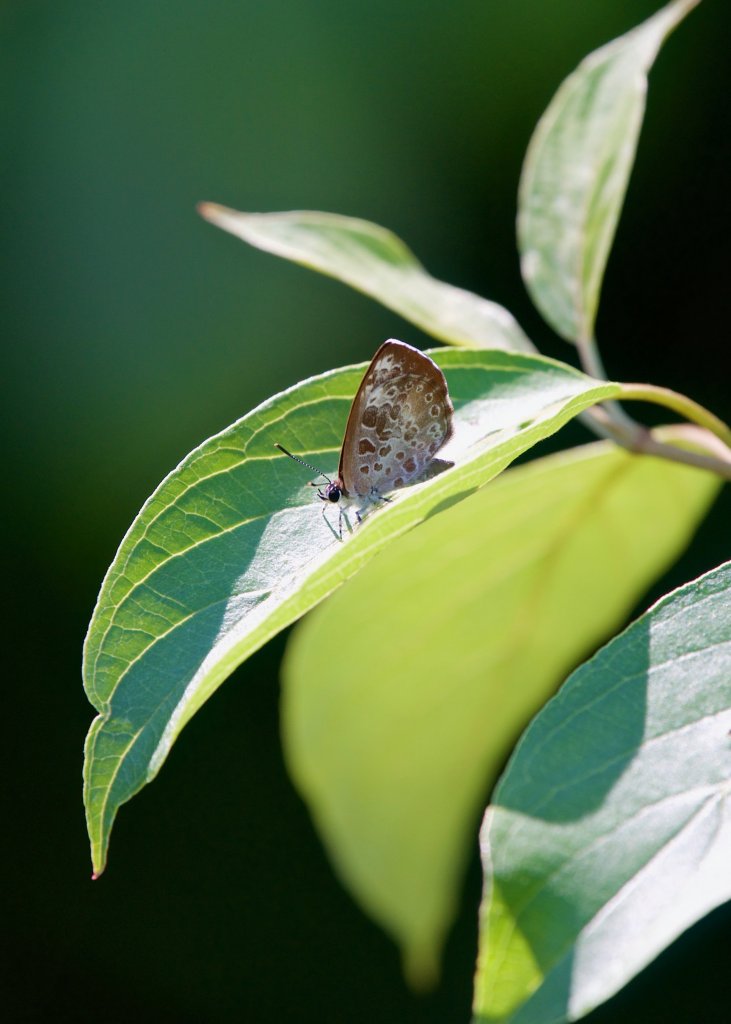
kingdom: Animalia
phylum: Arthropoda
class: Insecta
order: Lepidoptera
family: Lycaenidae
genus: Feniseca
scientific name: Feniseca tarquinius
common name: Harvester
